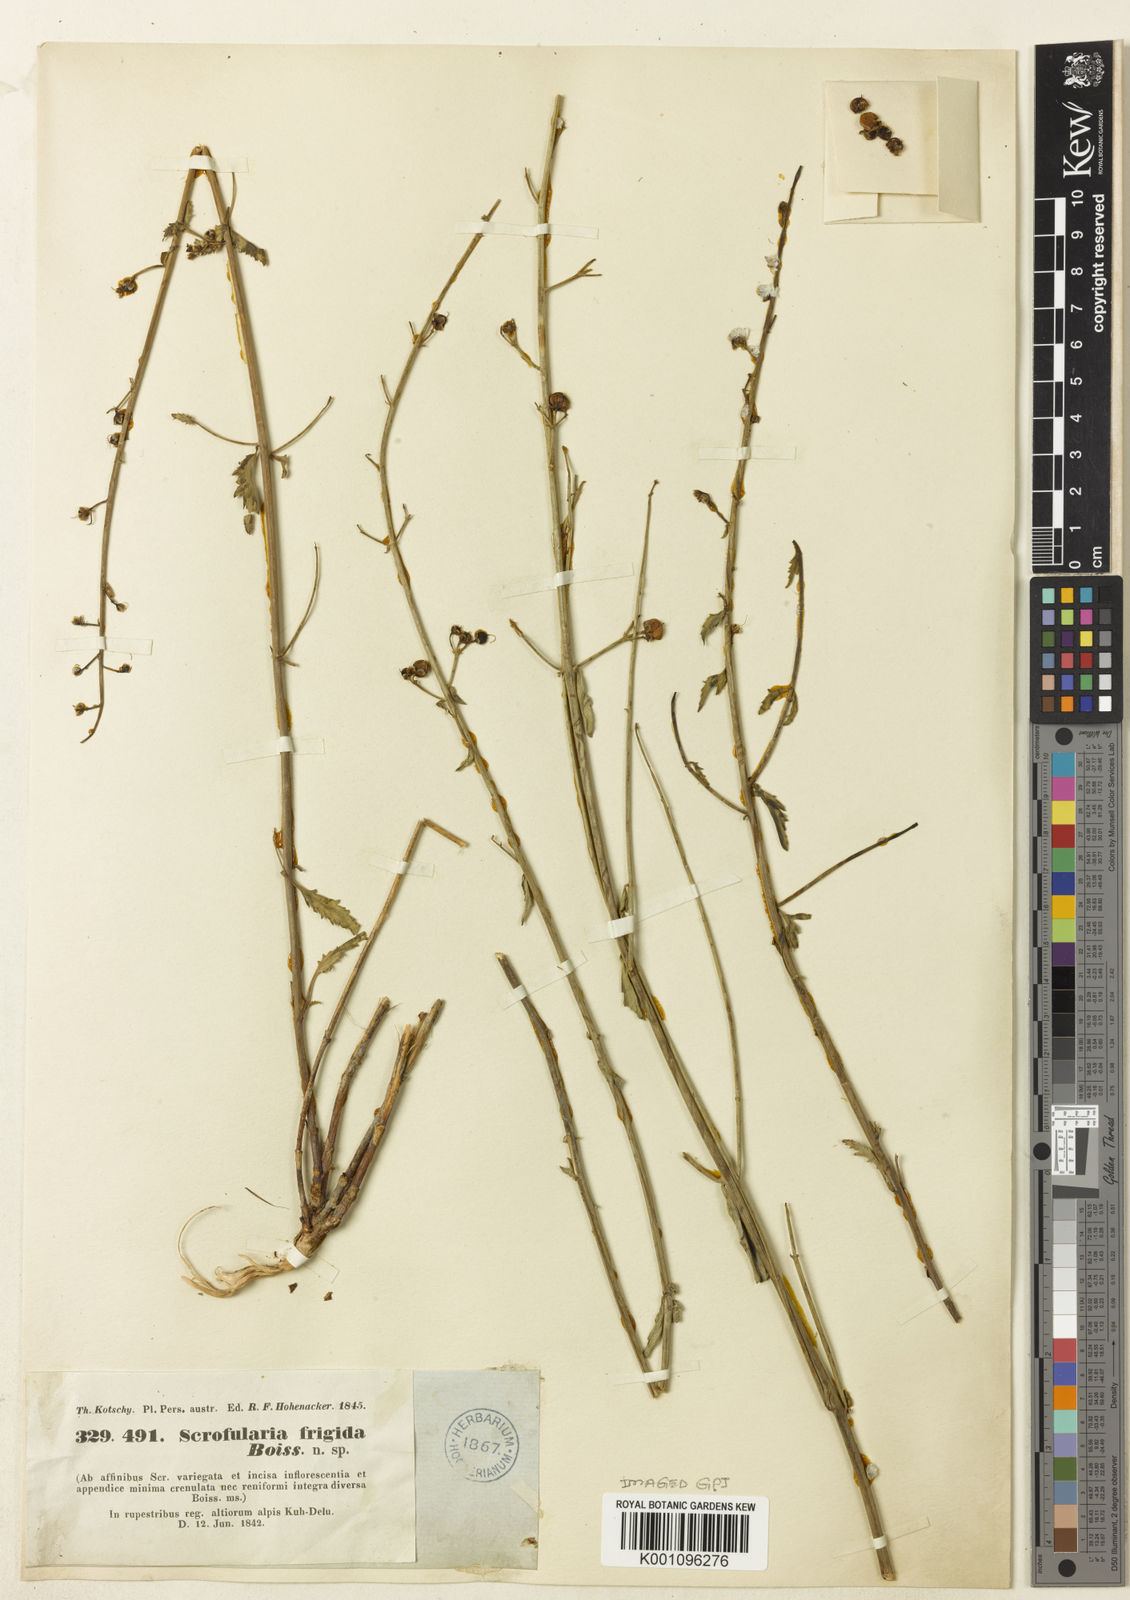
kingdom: Plantae
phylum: Tracheophyta
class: Magnoliopsida
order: Lamiales
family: Scrophulariaceae
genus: Scrophularia
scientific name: Scrophularia frigida
